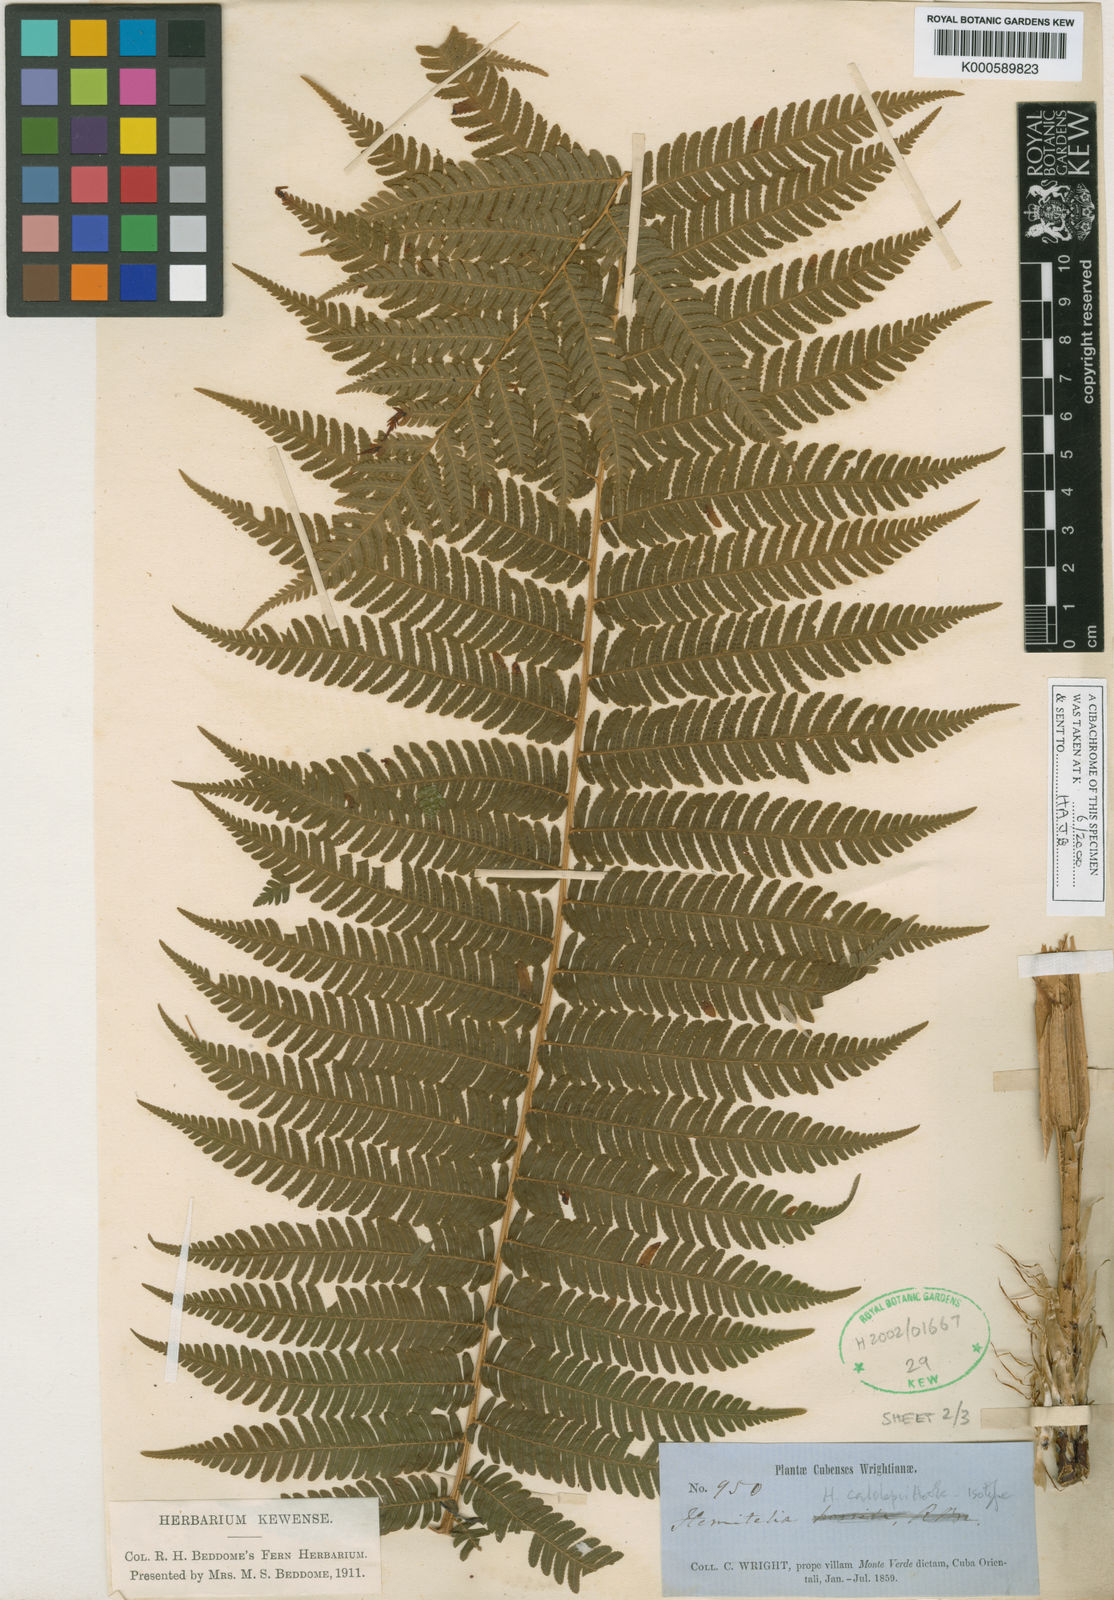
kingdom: Plantae
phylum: Tracheophyta
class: Polypodiopsida
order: Cyatheales
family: Cyatheaceae
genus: Cyathea
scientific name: Cyathea calolepis
